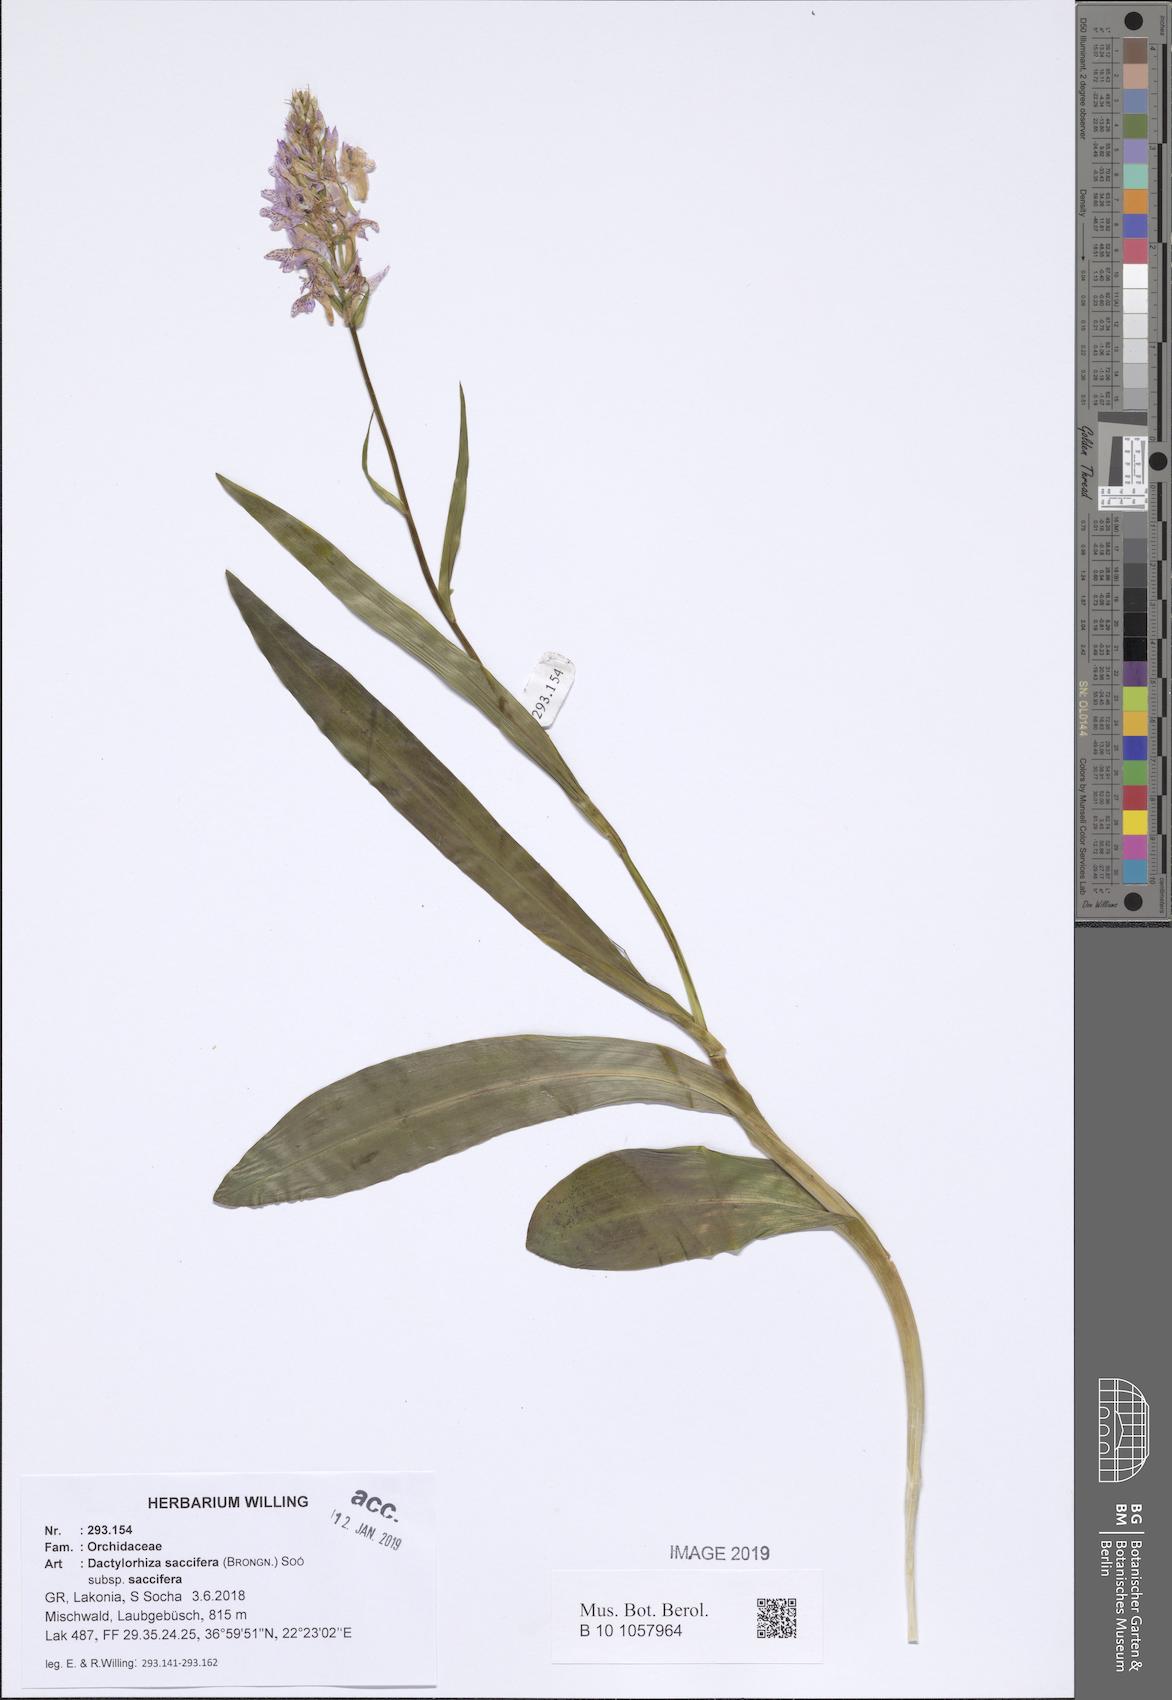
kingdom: Plantae
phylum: Tracheophyta
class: Liliopsida
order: Asparagales
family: Orchidaceae
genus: Dactylorhiza
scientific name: Dactylorhiza maculata
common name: Heath spotted-orchid
